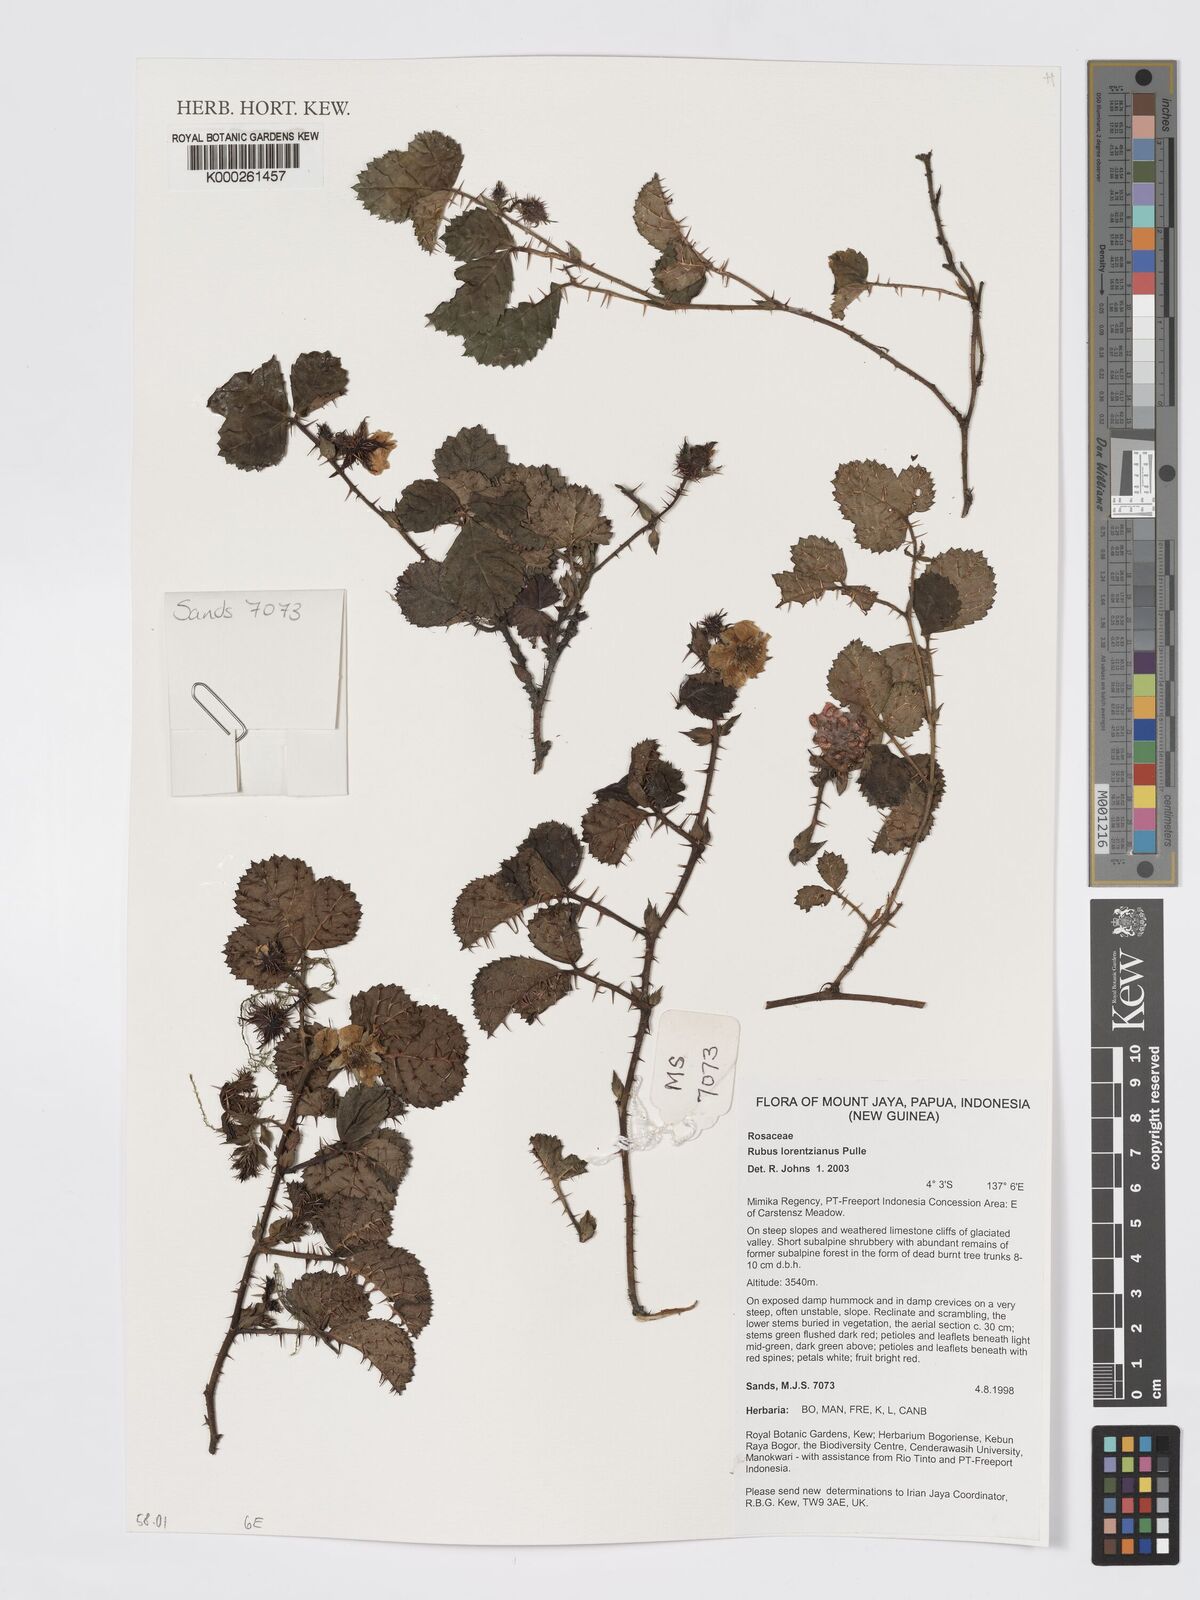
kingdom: Plantae
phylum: Tracheophyta
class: Magnoliopsida
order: Rosales
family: Rosaceae
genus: Rubus
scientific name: Rubus lorentzianus
